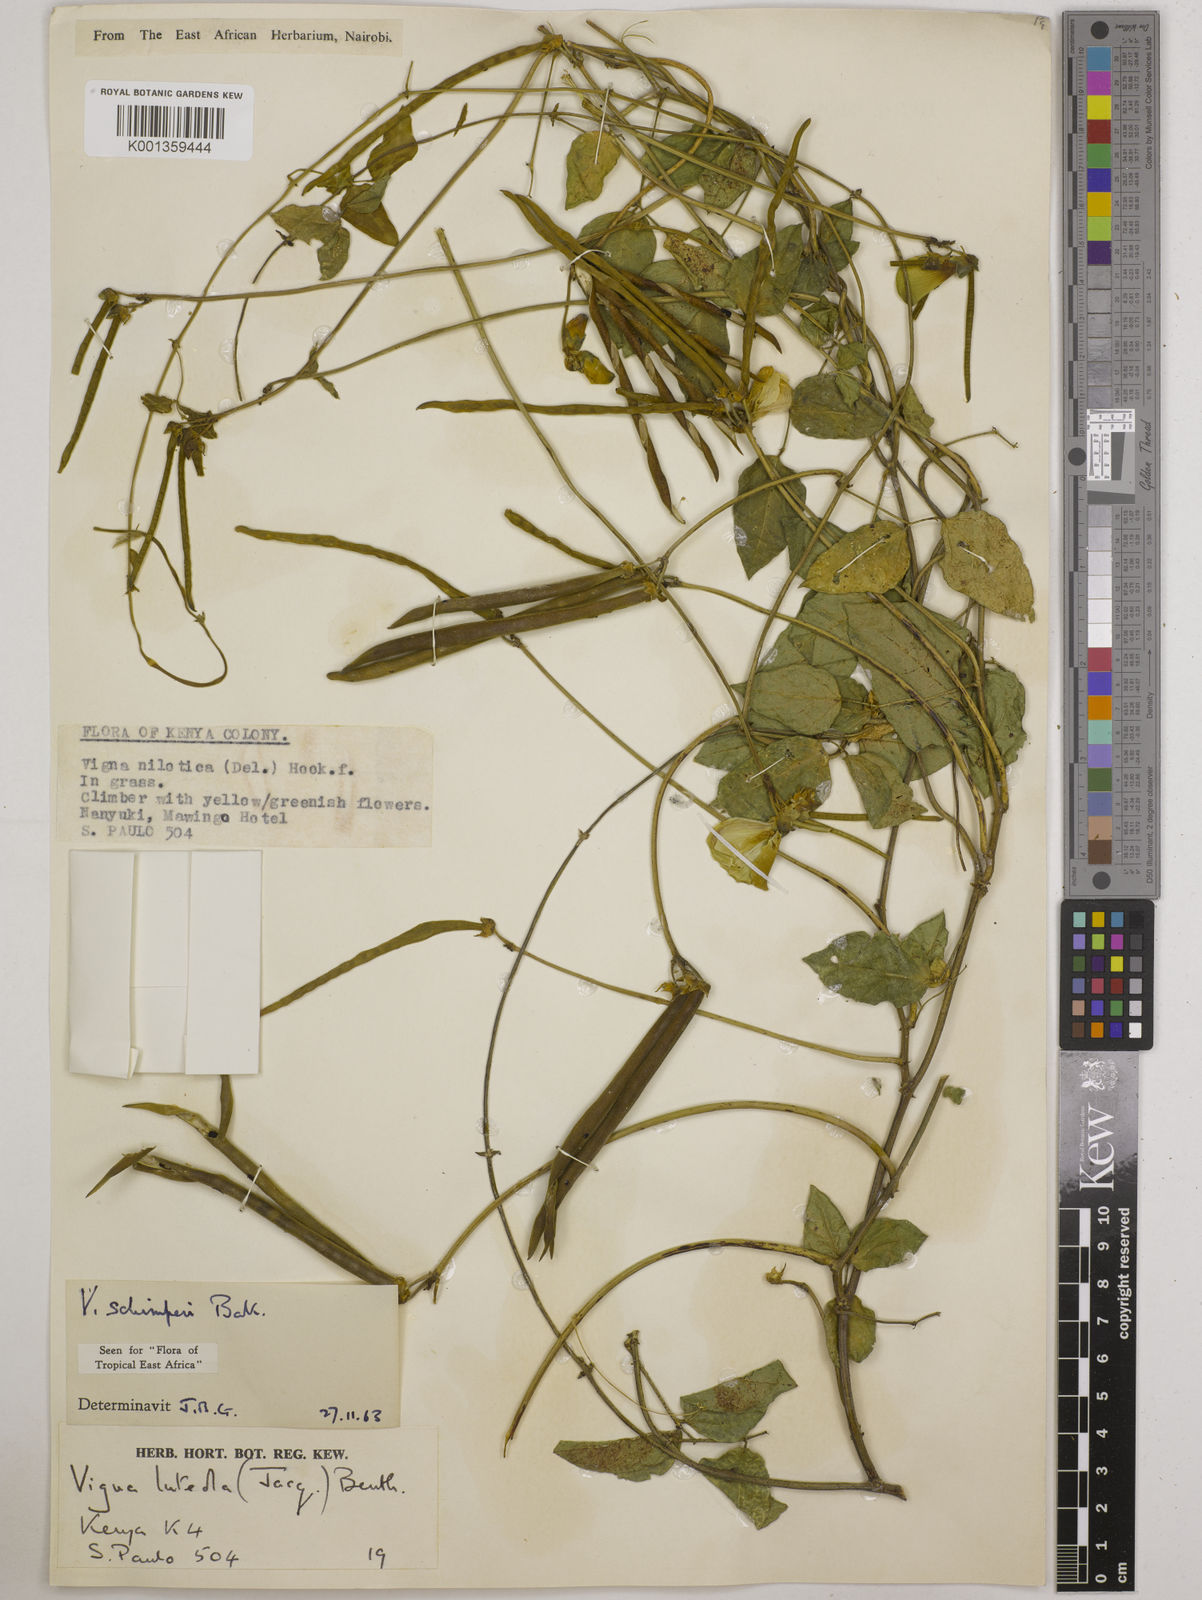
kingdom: Plantae
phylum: Tracheophyta
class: Magnoliopsida
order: Fabales
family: Fabaceae
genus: Vigna
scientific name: Vigna schimperi
